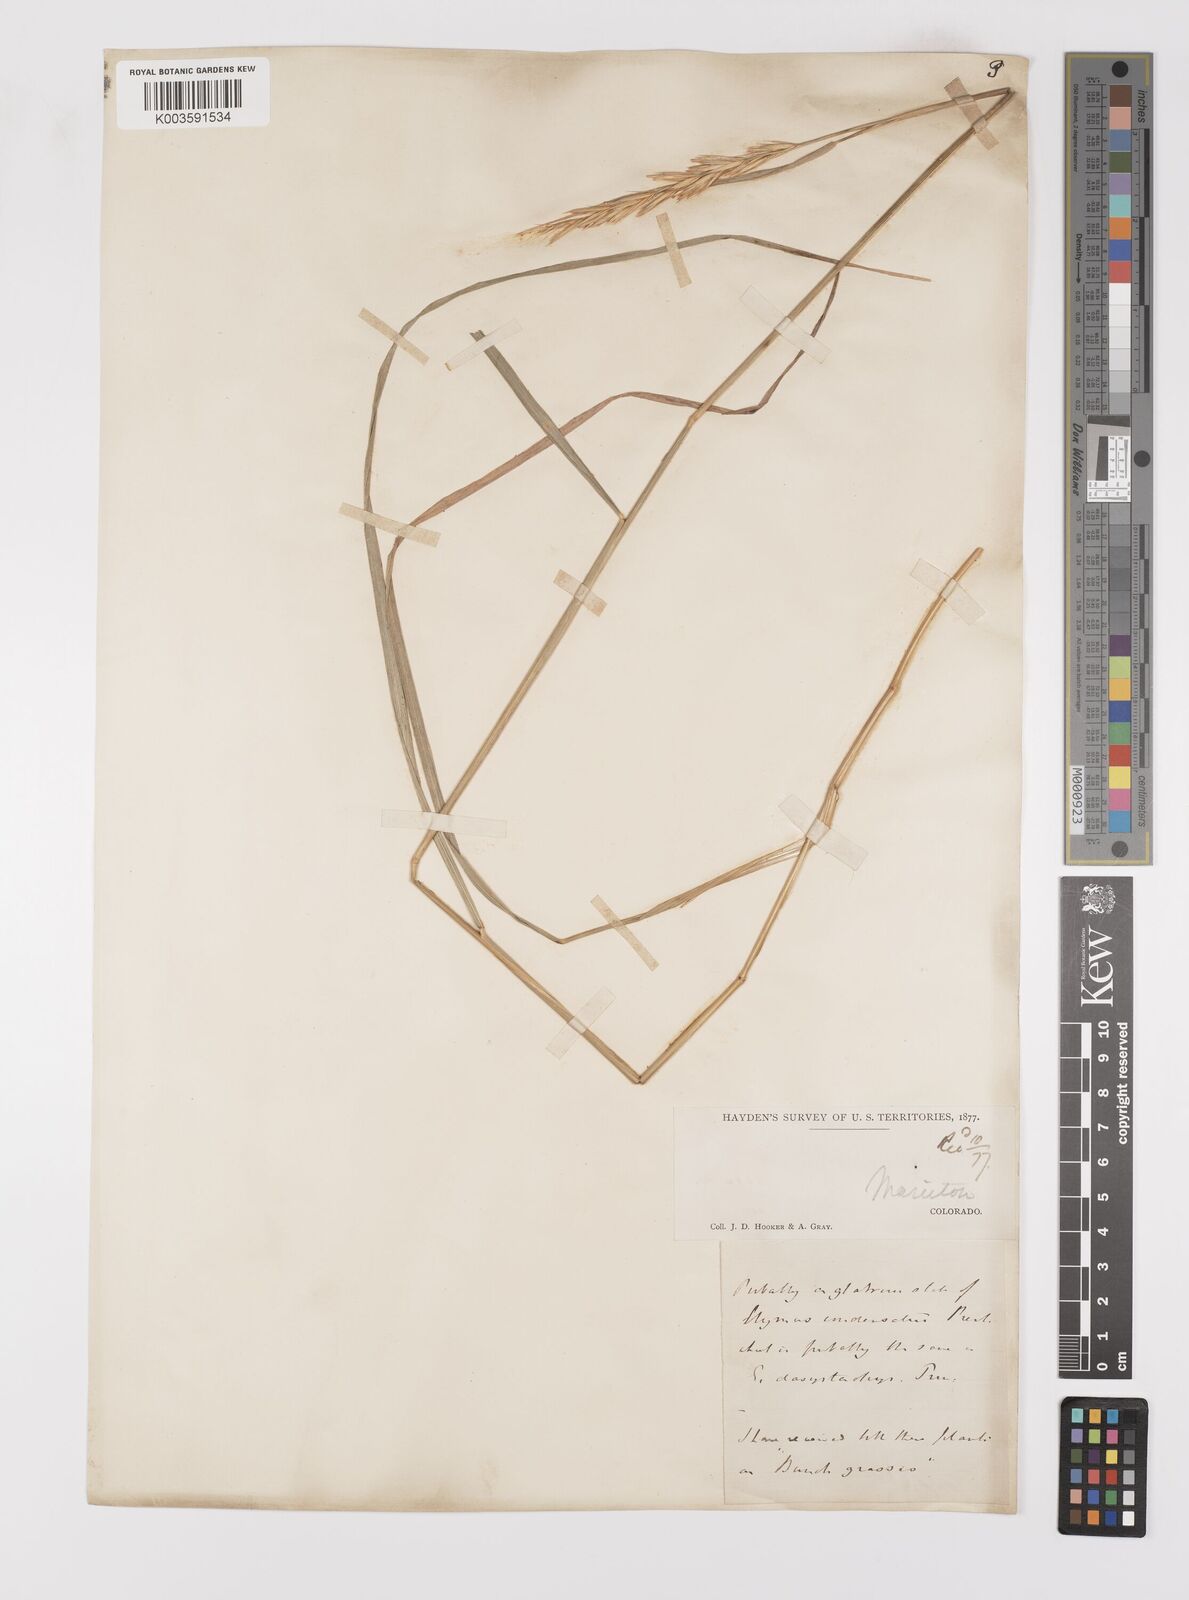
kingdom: Plantae
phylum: Tracheophyta
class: Liliopsida
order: Poales
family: Poaceae
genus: Leymus
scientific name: Leymus condensatus
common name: Giant wild rye
